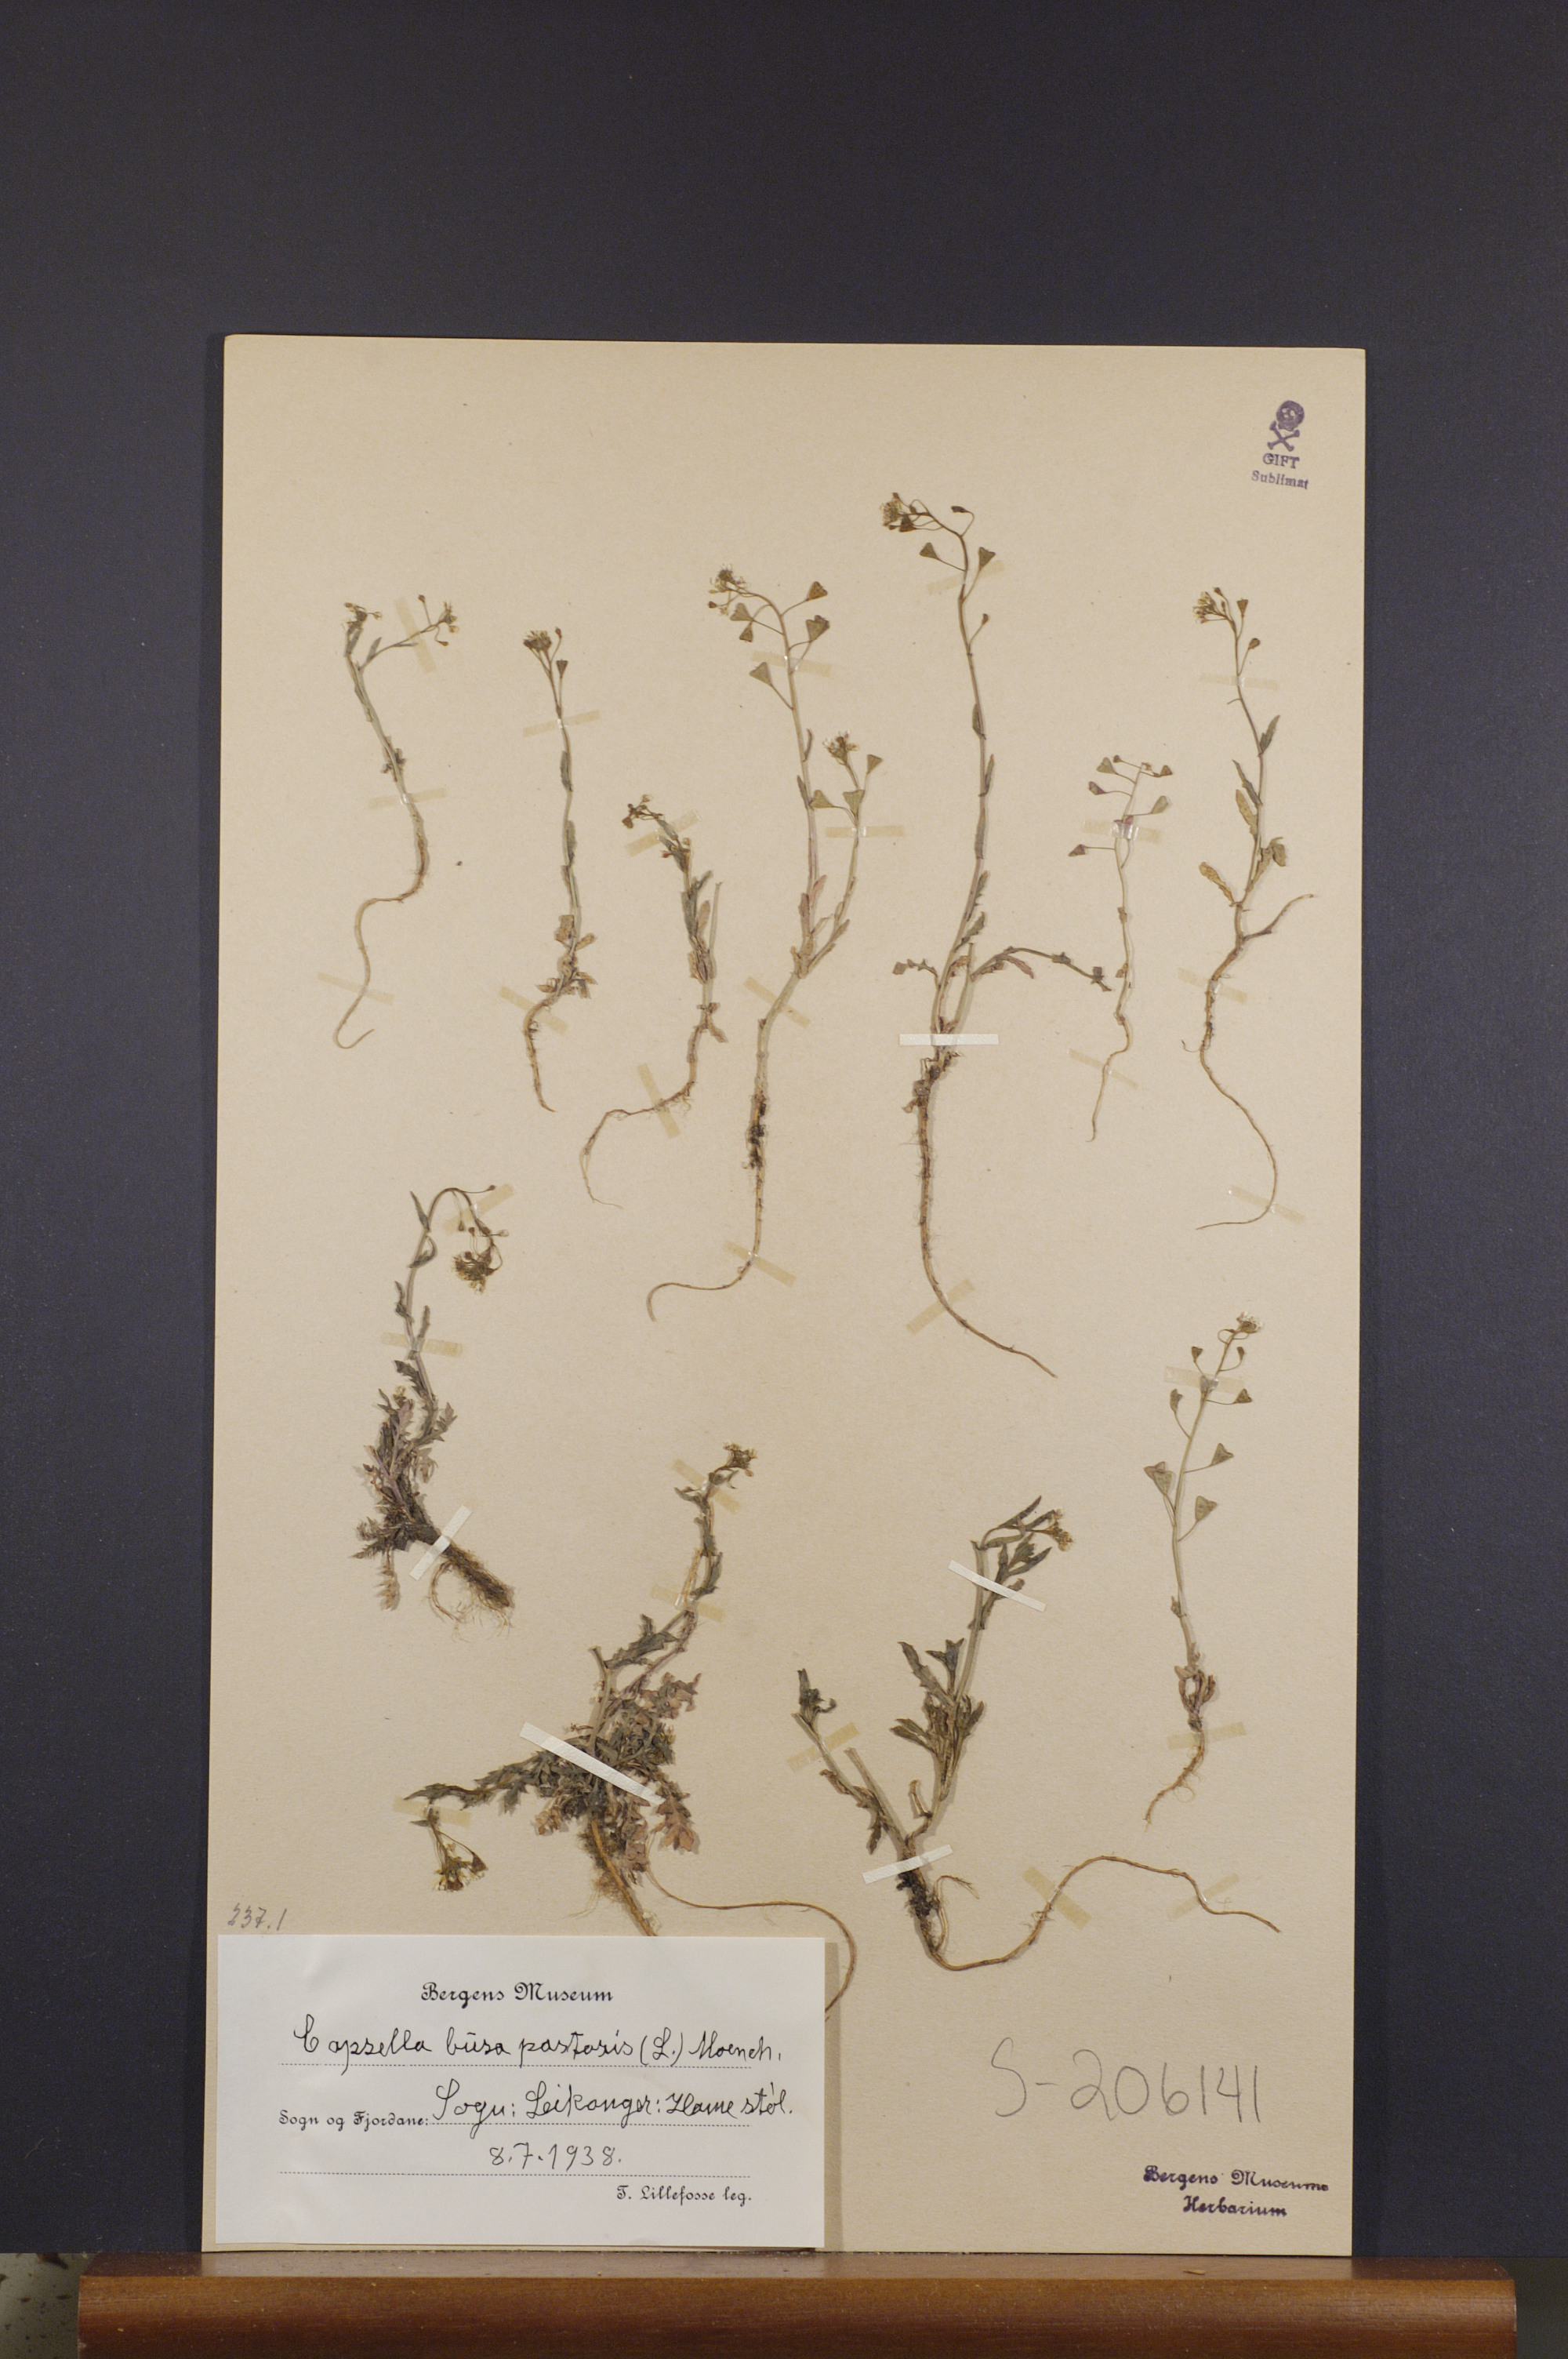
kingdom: Plantae
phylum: Tracheophyta
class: Magnoliopsida
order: Brassicales
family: Brassicaceae
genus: Capsella
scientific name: Capsella bursa-pastoris
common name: Shepherd's purse
